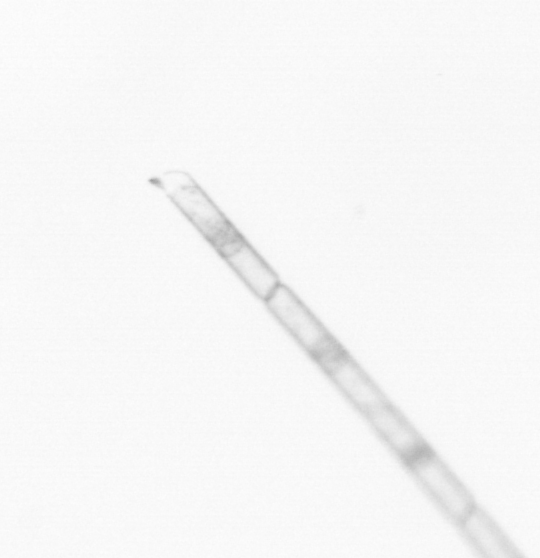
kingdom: Chromista
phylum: Ochrophyta
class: Bacillariophyceae
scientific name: Bacillariophyceae
